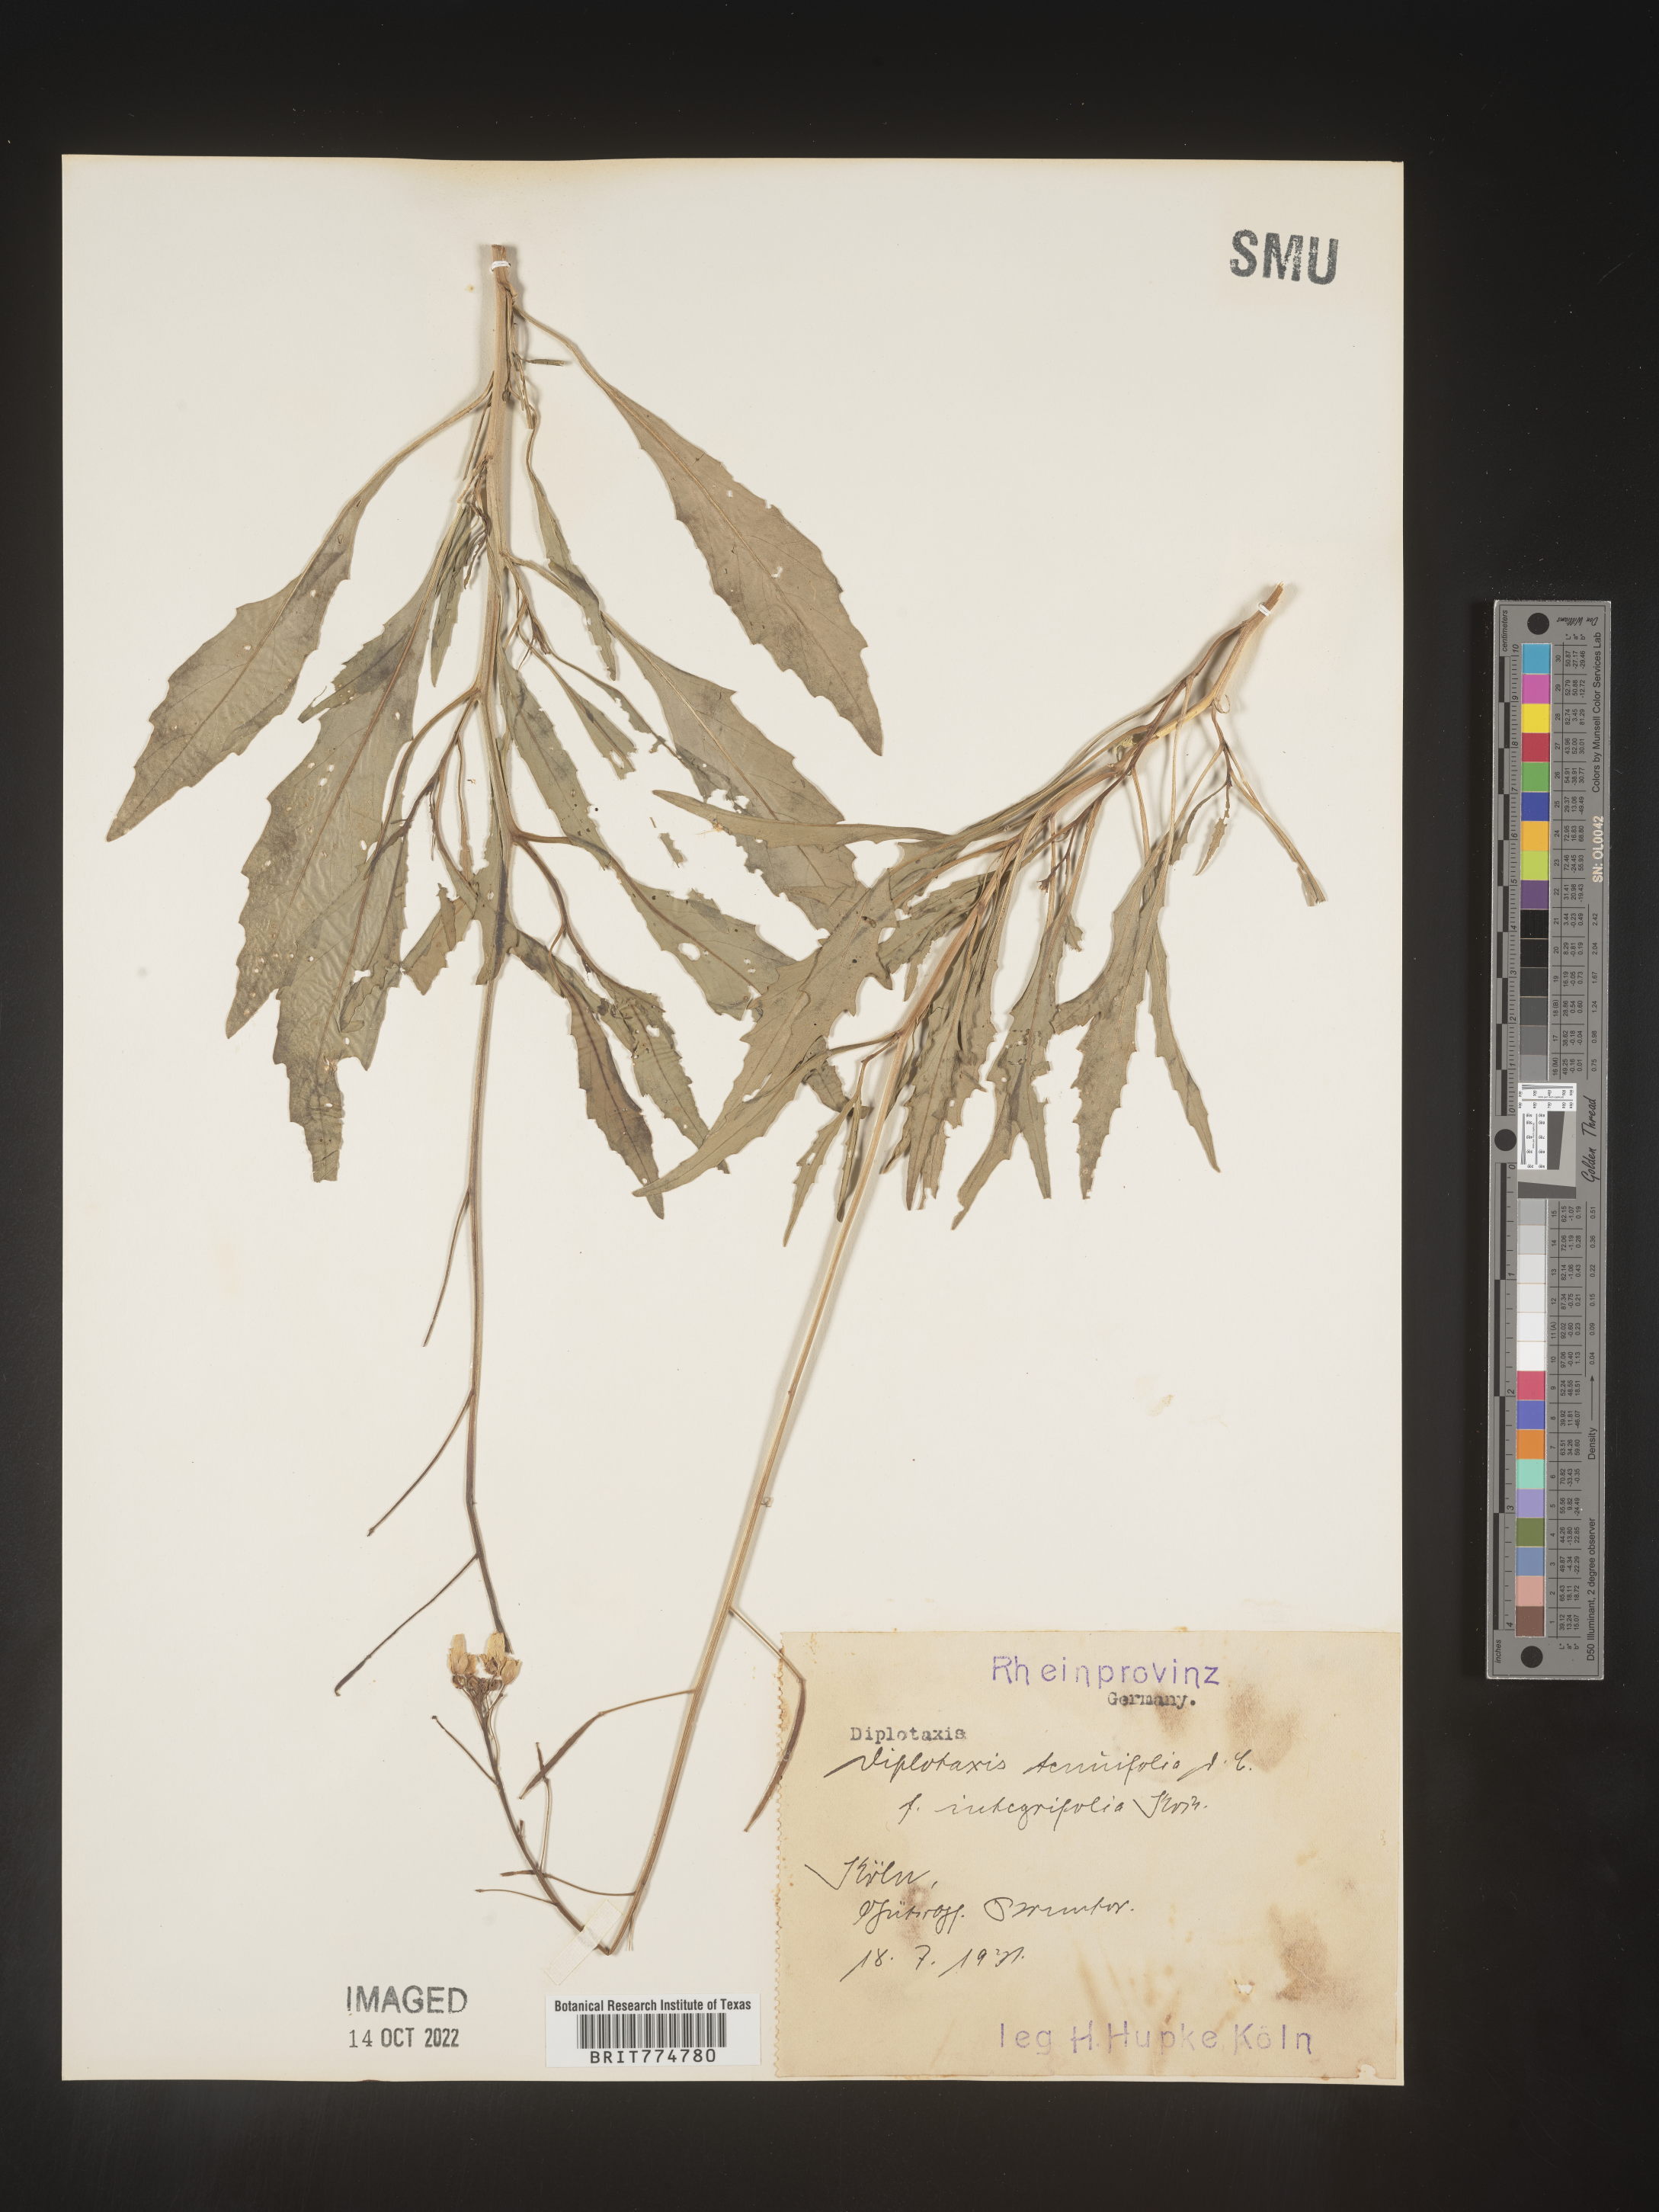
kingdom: Plantae
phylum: Tracheophyta
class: Magnoliopsida
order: Brassicales
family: Brassicaceae
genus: Diplotaxis
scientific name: Diplotaxis
